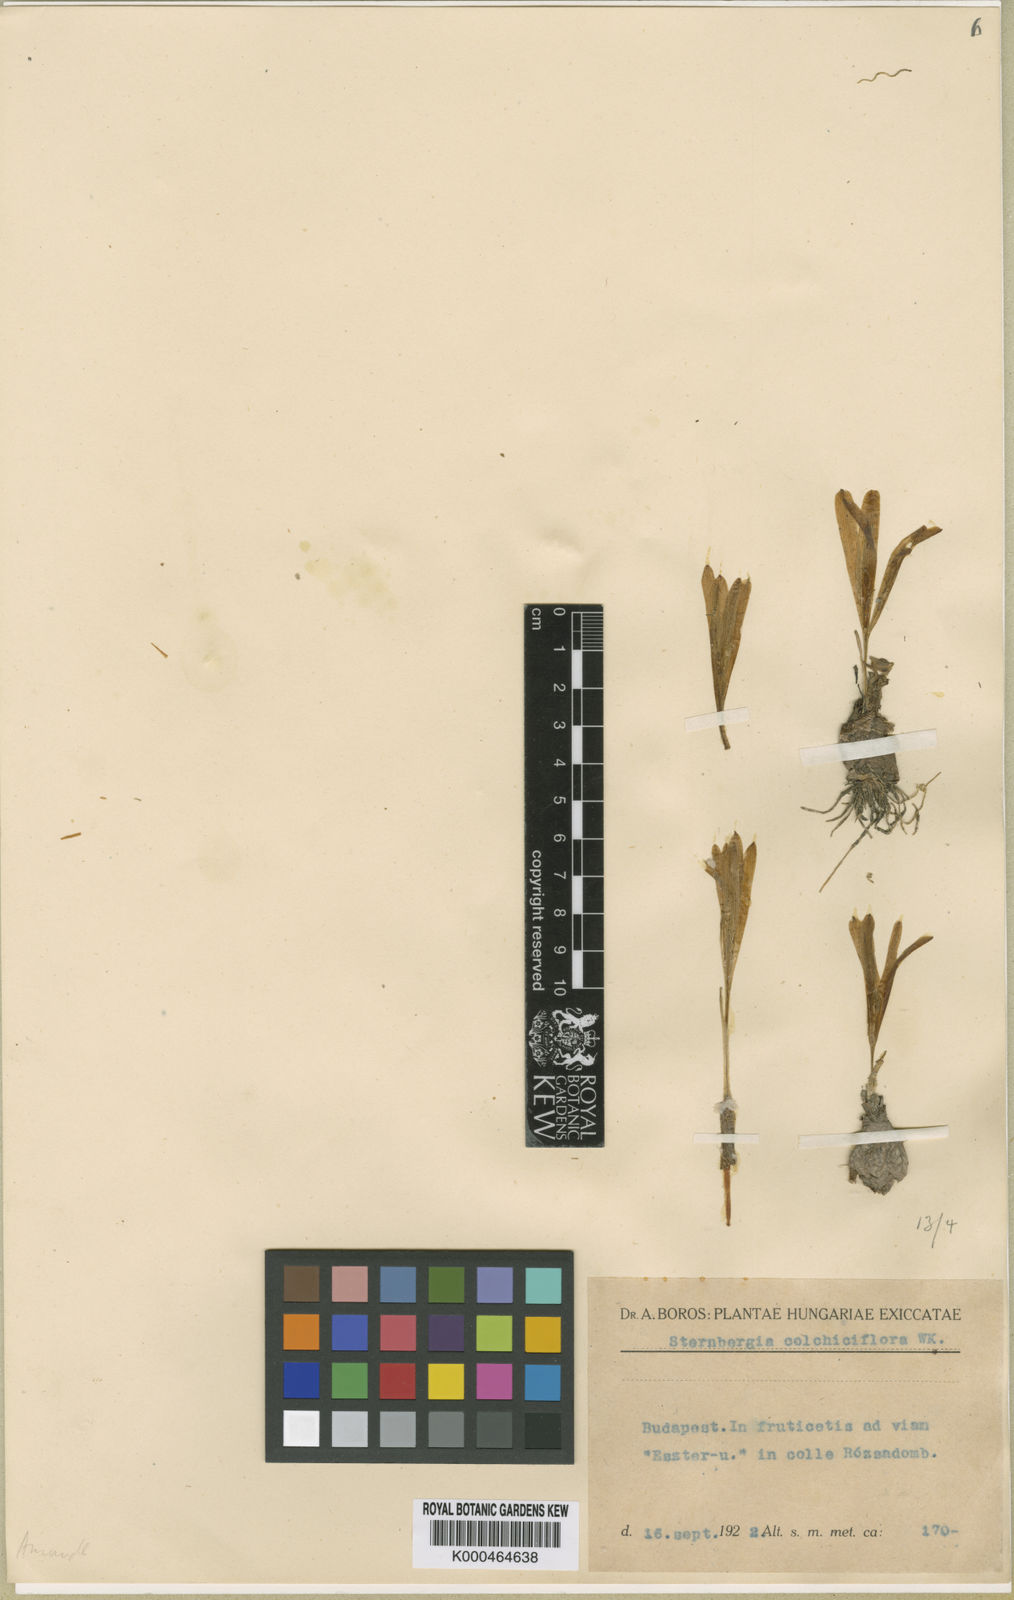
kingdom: Plantae
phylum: Tracheophyta
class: Liliopsida
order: Asparagales
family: Amaryllidaceae
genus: Sternbergia
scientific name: Sternbergia colchiciflora
